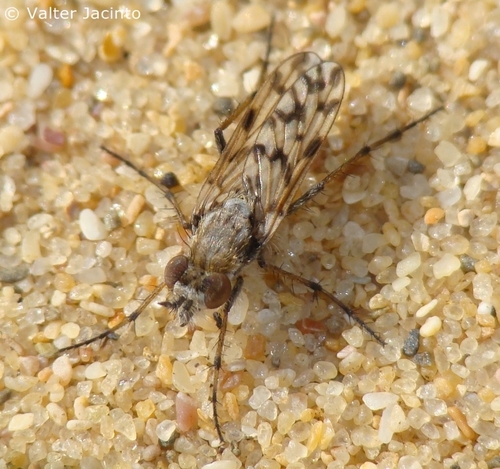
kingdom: Animalia
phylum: Arthropoda
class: Insecta
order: Diptera
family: Therevidae
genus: Acantothereva
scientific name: Acantothereva oblata
